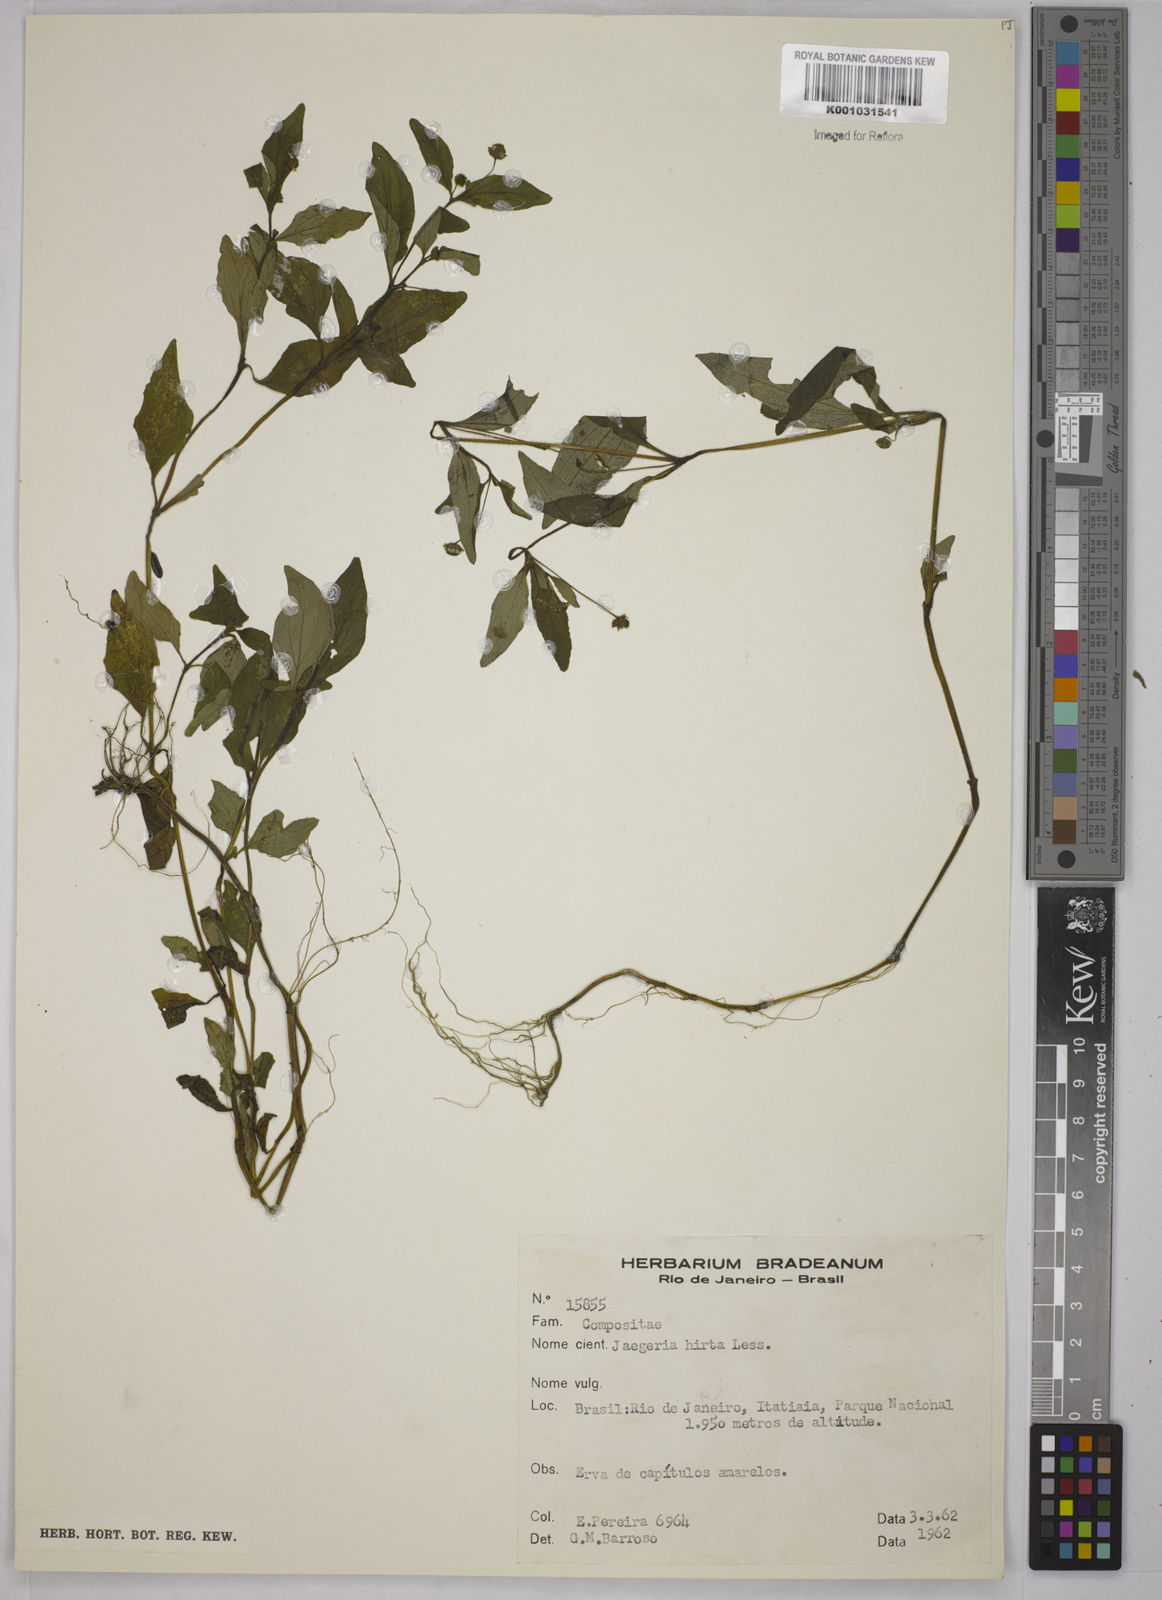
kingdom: Plantae
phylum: Tracheophyta
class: Magnoliopsida
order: Asterales
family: Asteraceae
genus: Jaegeria
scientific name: Jaegeria hirta
